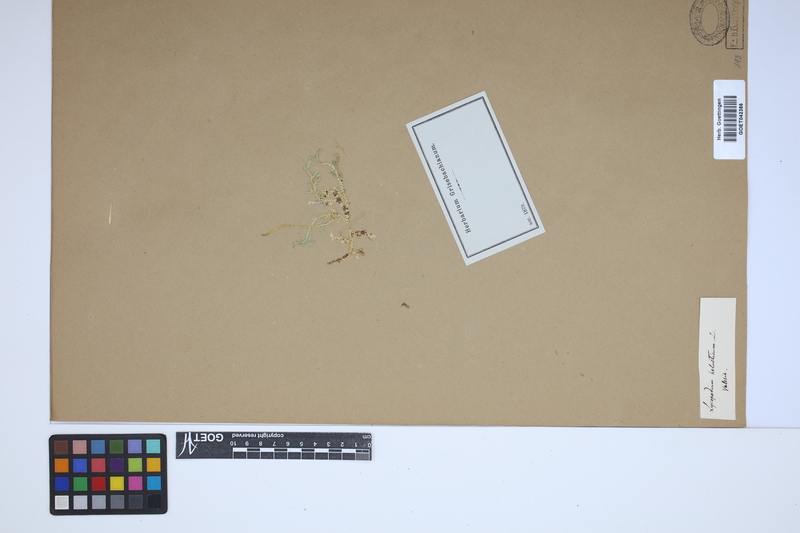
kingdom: Plantae
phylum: Tracheophyta
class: Lycopodiopsida
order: Selaginellales
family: Selaginellaceae
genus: Selaginella
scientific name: Selaginella helvetica
